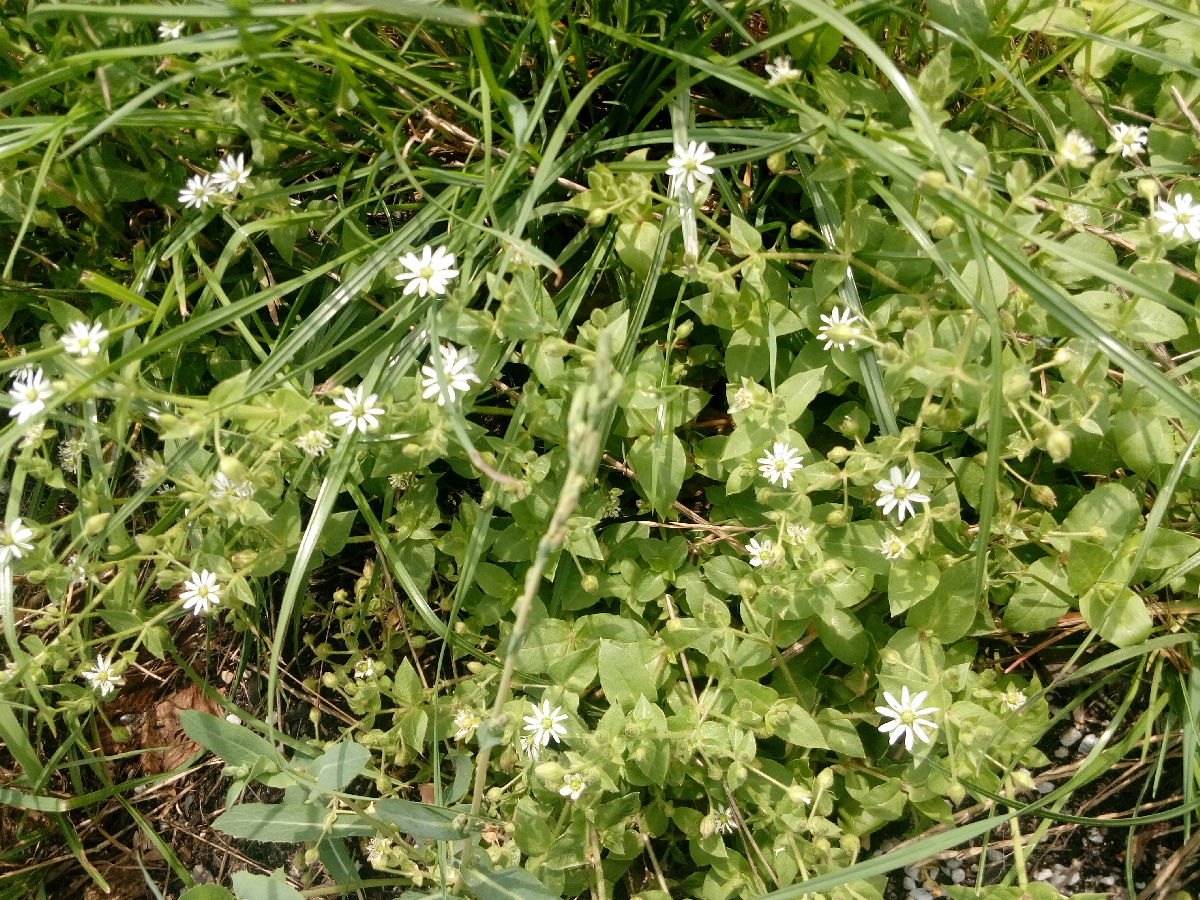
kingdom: Plantae
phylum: Tracheophyta
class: Magnoliopsida
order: Caryophyllales
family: Caryophyllaceae
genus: Stellaria
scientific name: Stellaria aquatica
